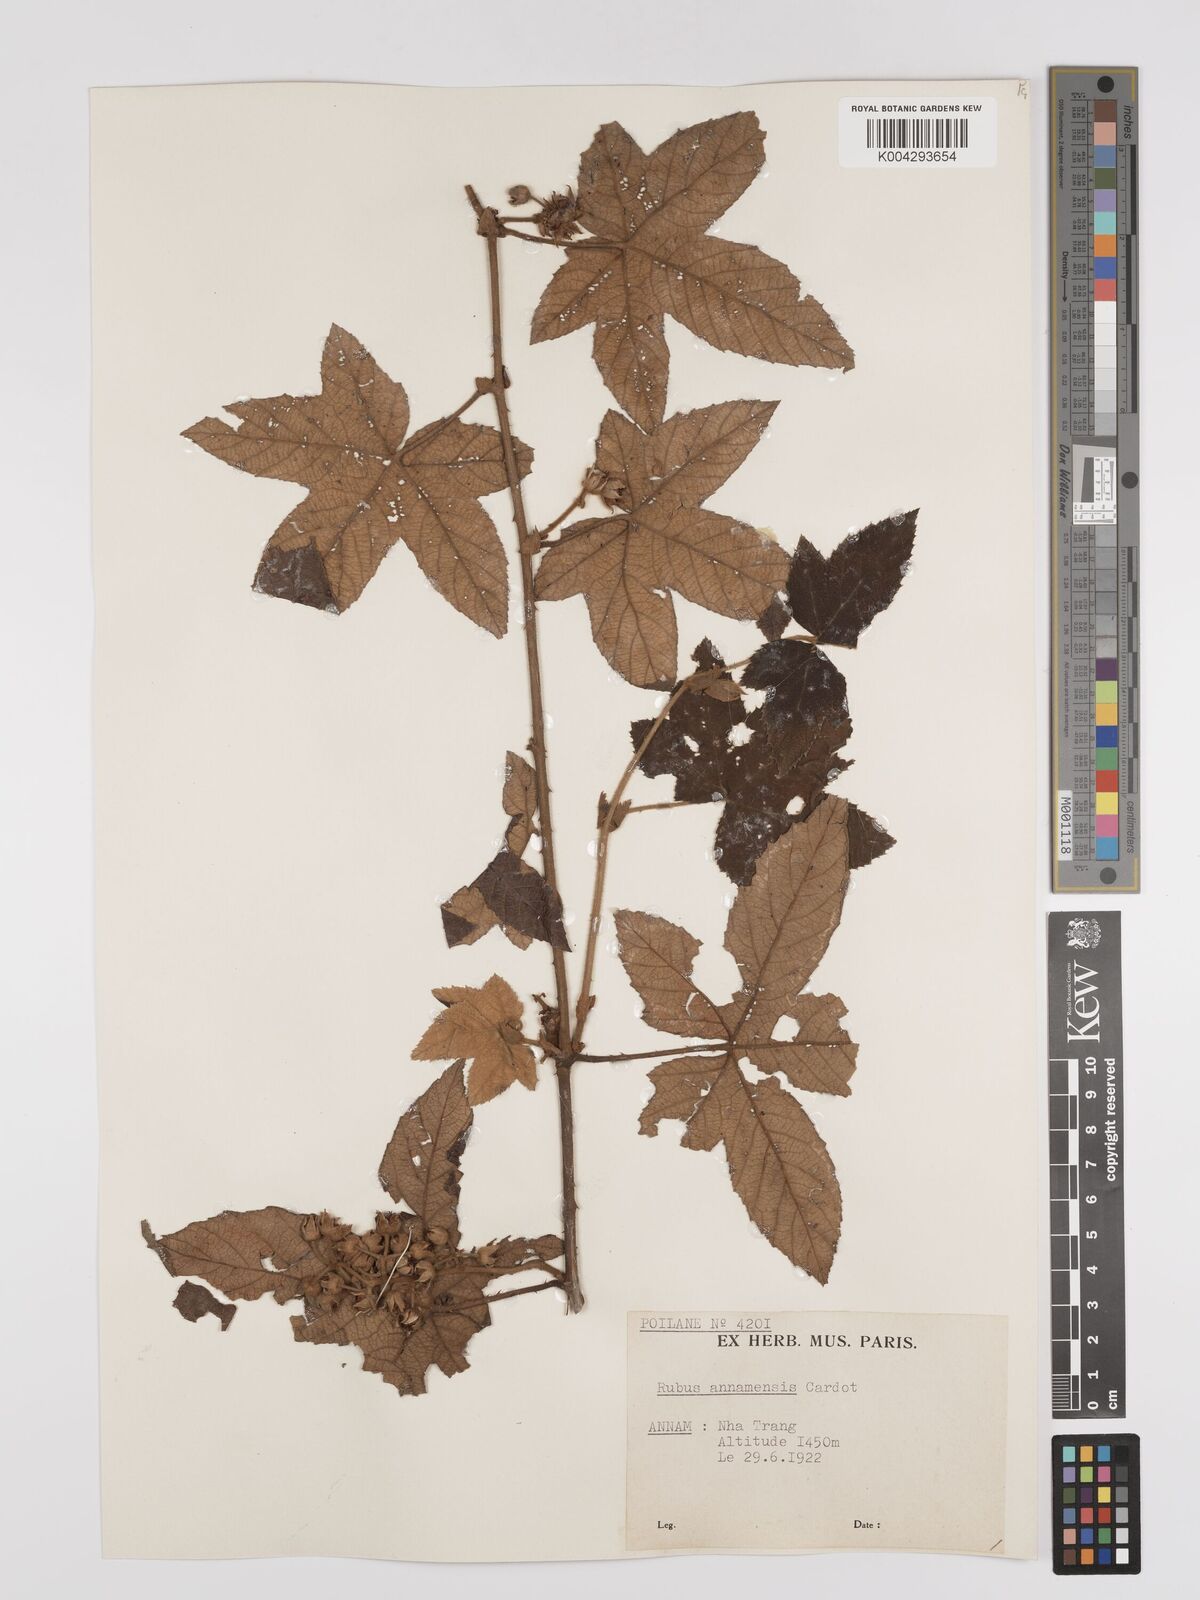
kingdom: Plantae
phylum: Tracheophyta
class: Magnoliopsida
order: Rosales
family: Rosaceae
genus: Rubus
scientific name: Rubus assamensis
